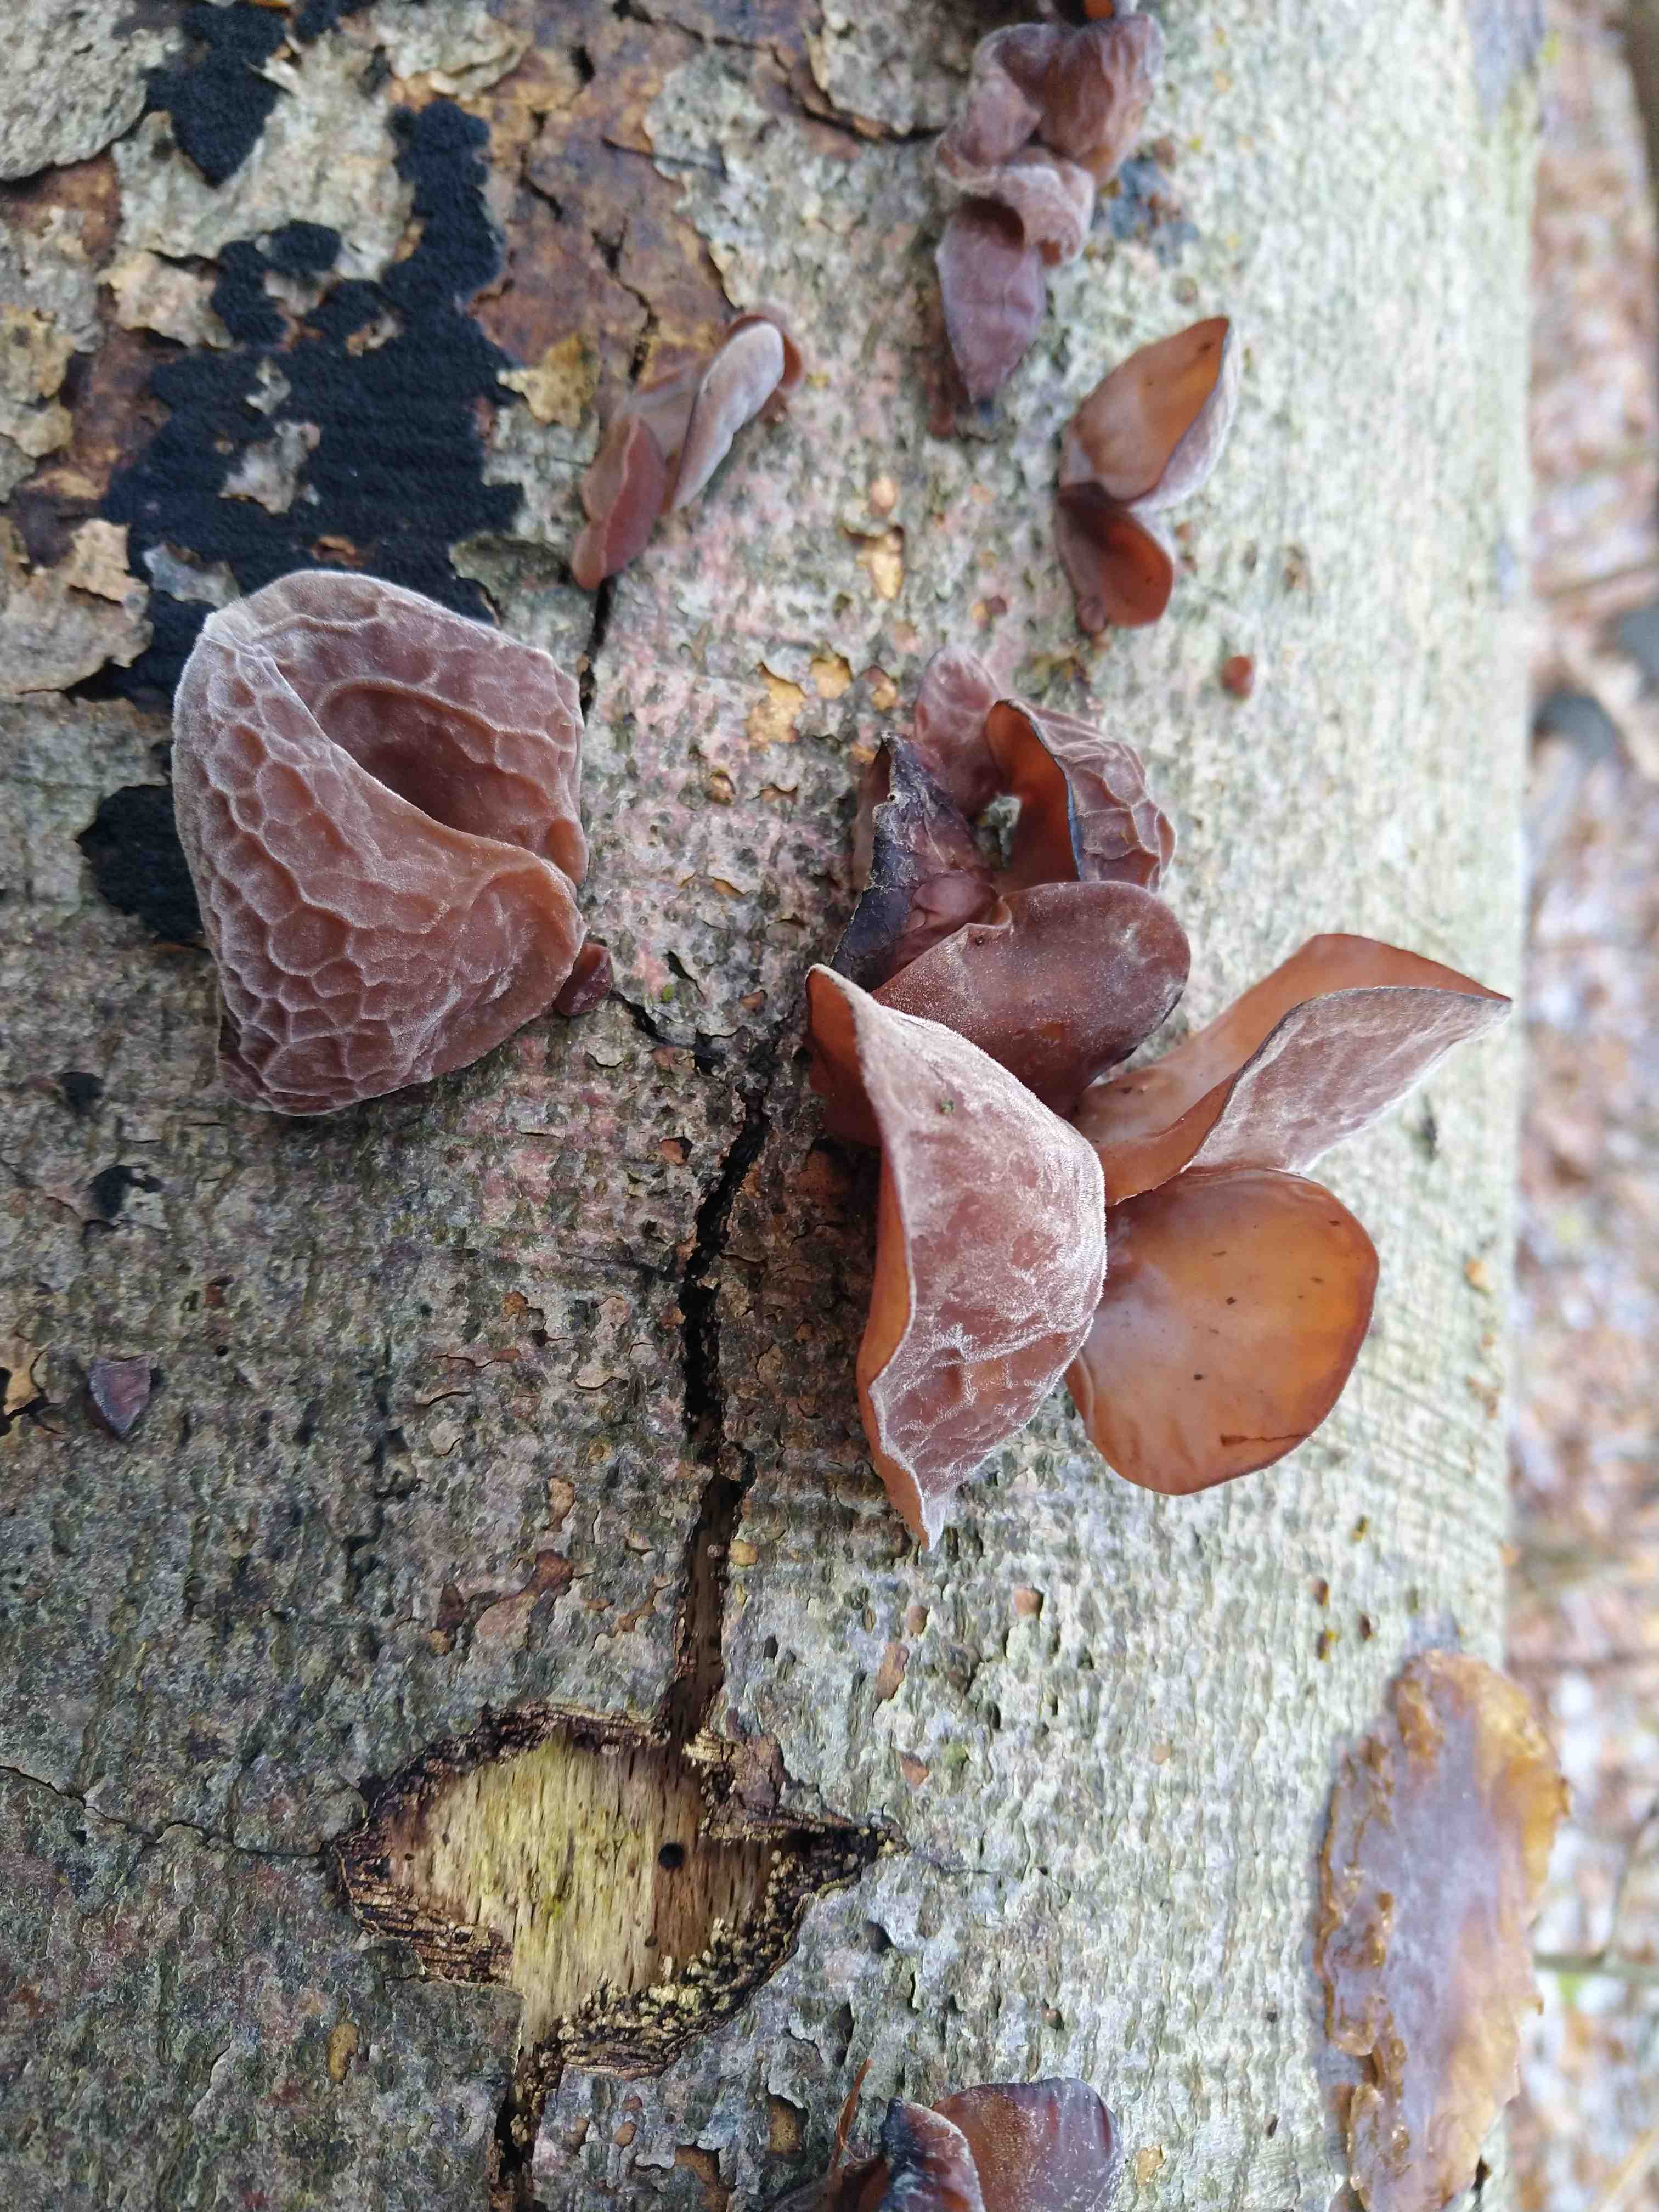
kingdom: Fungi
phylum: Basidiomycota
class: Agaricomycetes
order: Auriculariales
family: Auriculariaceae
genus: Auricularia
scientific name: Auricularia auricula-judae
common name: almindelig judasøre
